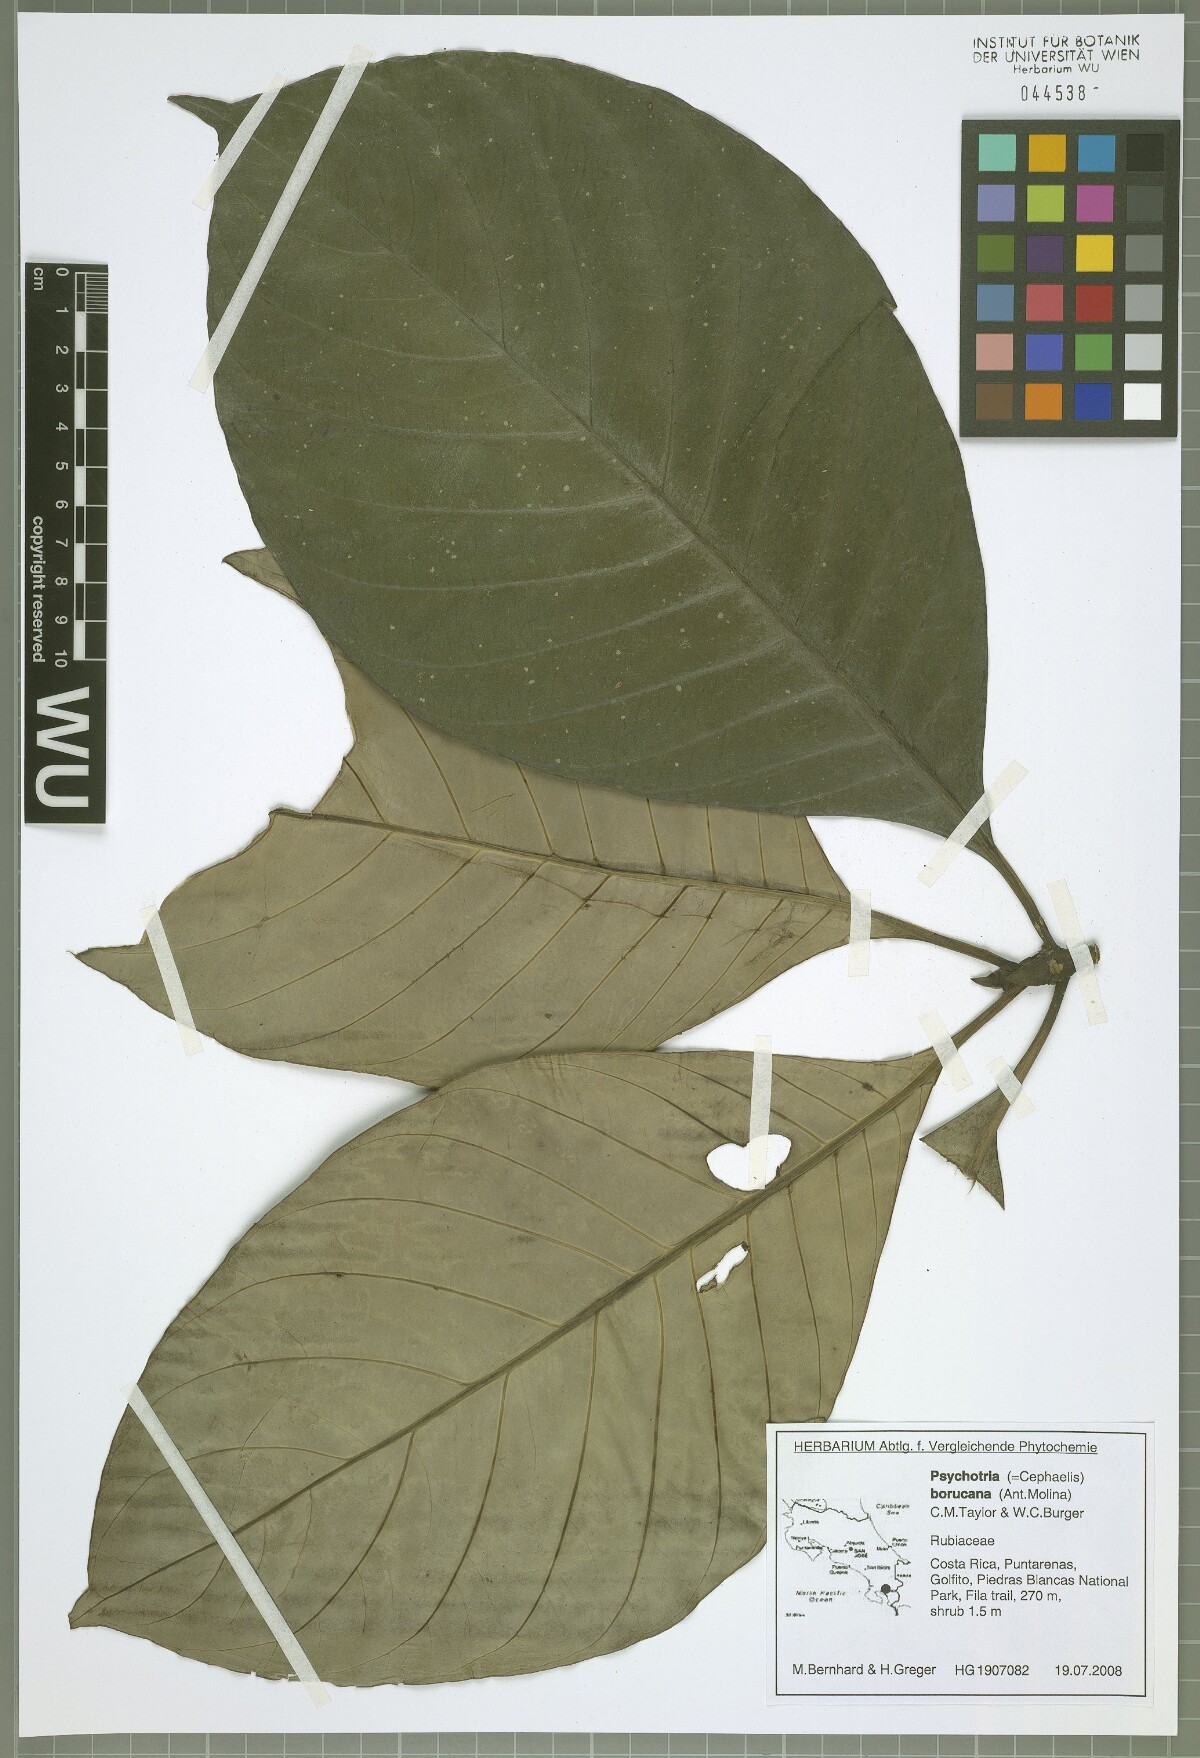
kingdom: Plantae
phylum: Tracheophyta
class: Magnoliopsida
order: Gentianales
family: Rubiaceae
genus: Carapichea
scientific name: Carapichea affinis
